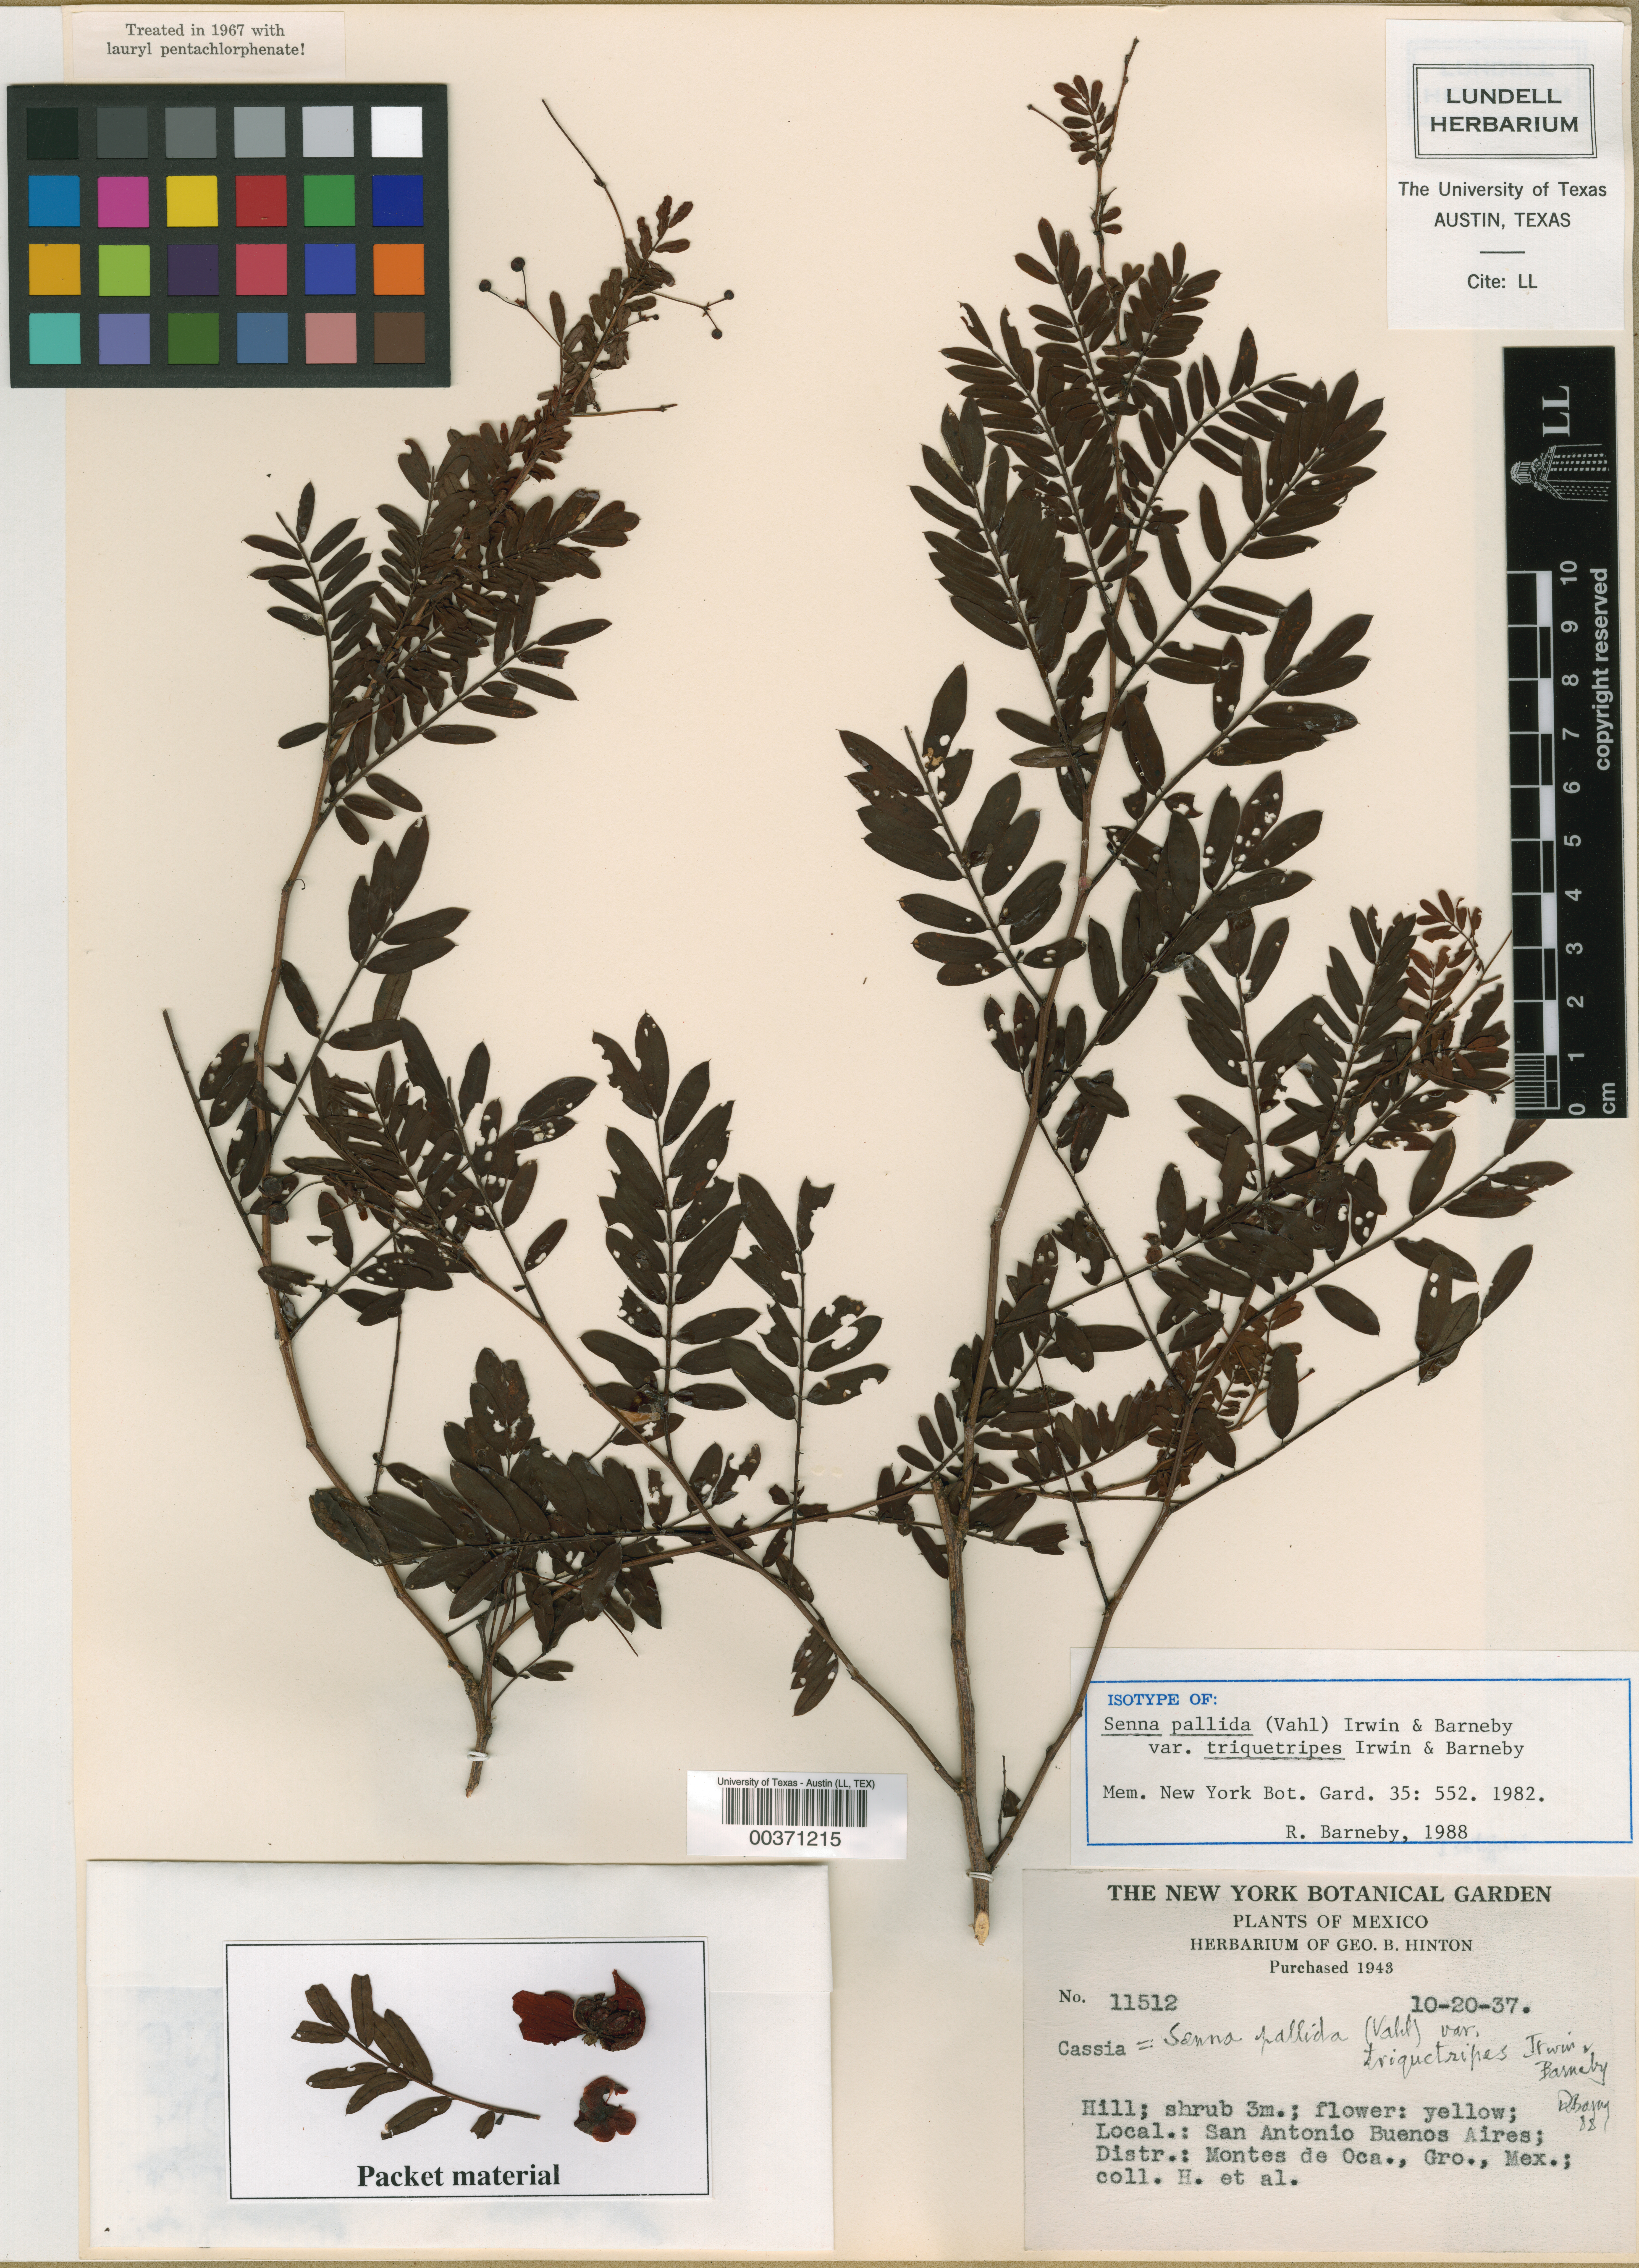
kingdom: Plantae
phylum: Tracheophyta
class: Magnoliopsida
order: Fabales
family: Fabaceae
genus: Senna
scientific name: Senna pallida
